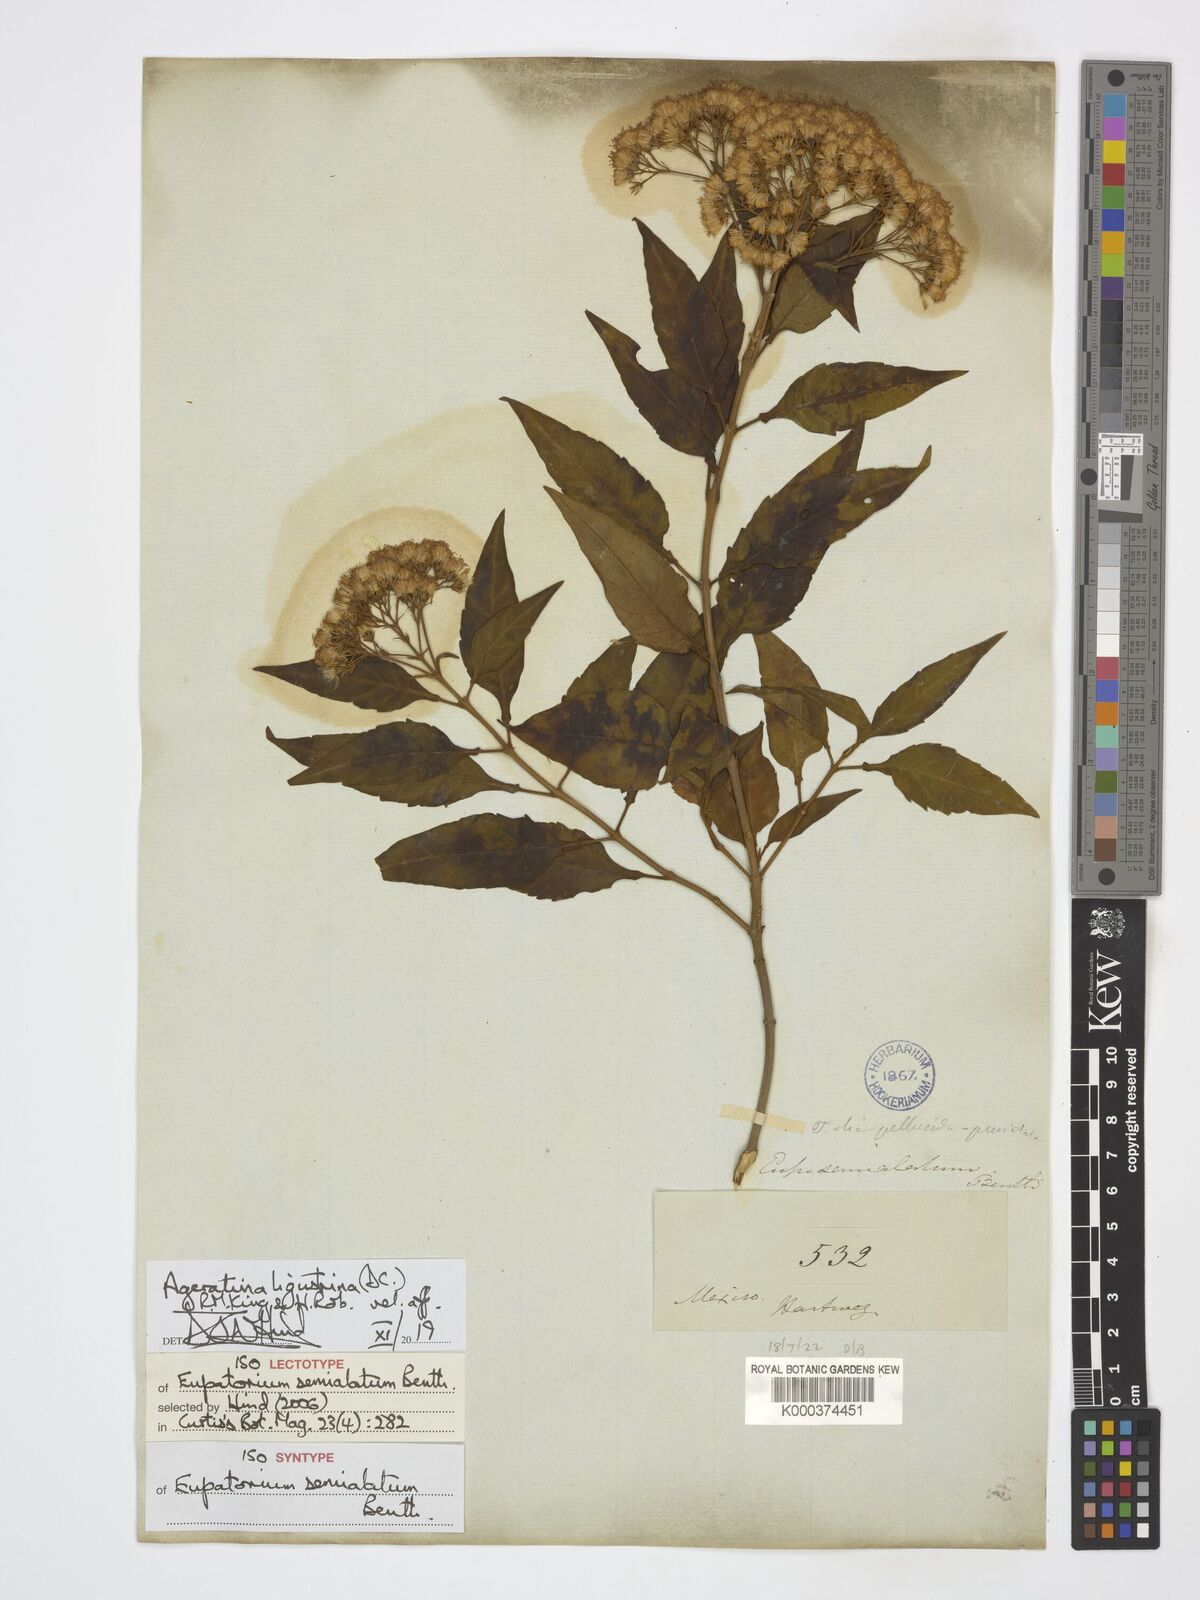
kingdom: Plantae
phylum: Tracheophyta
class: Magnoliopsida
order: Asterales
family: Asteraceae
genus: Ageratina
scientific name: Ageratina ligustrina
